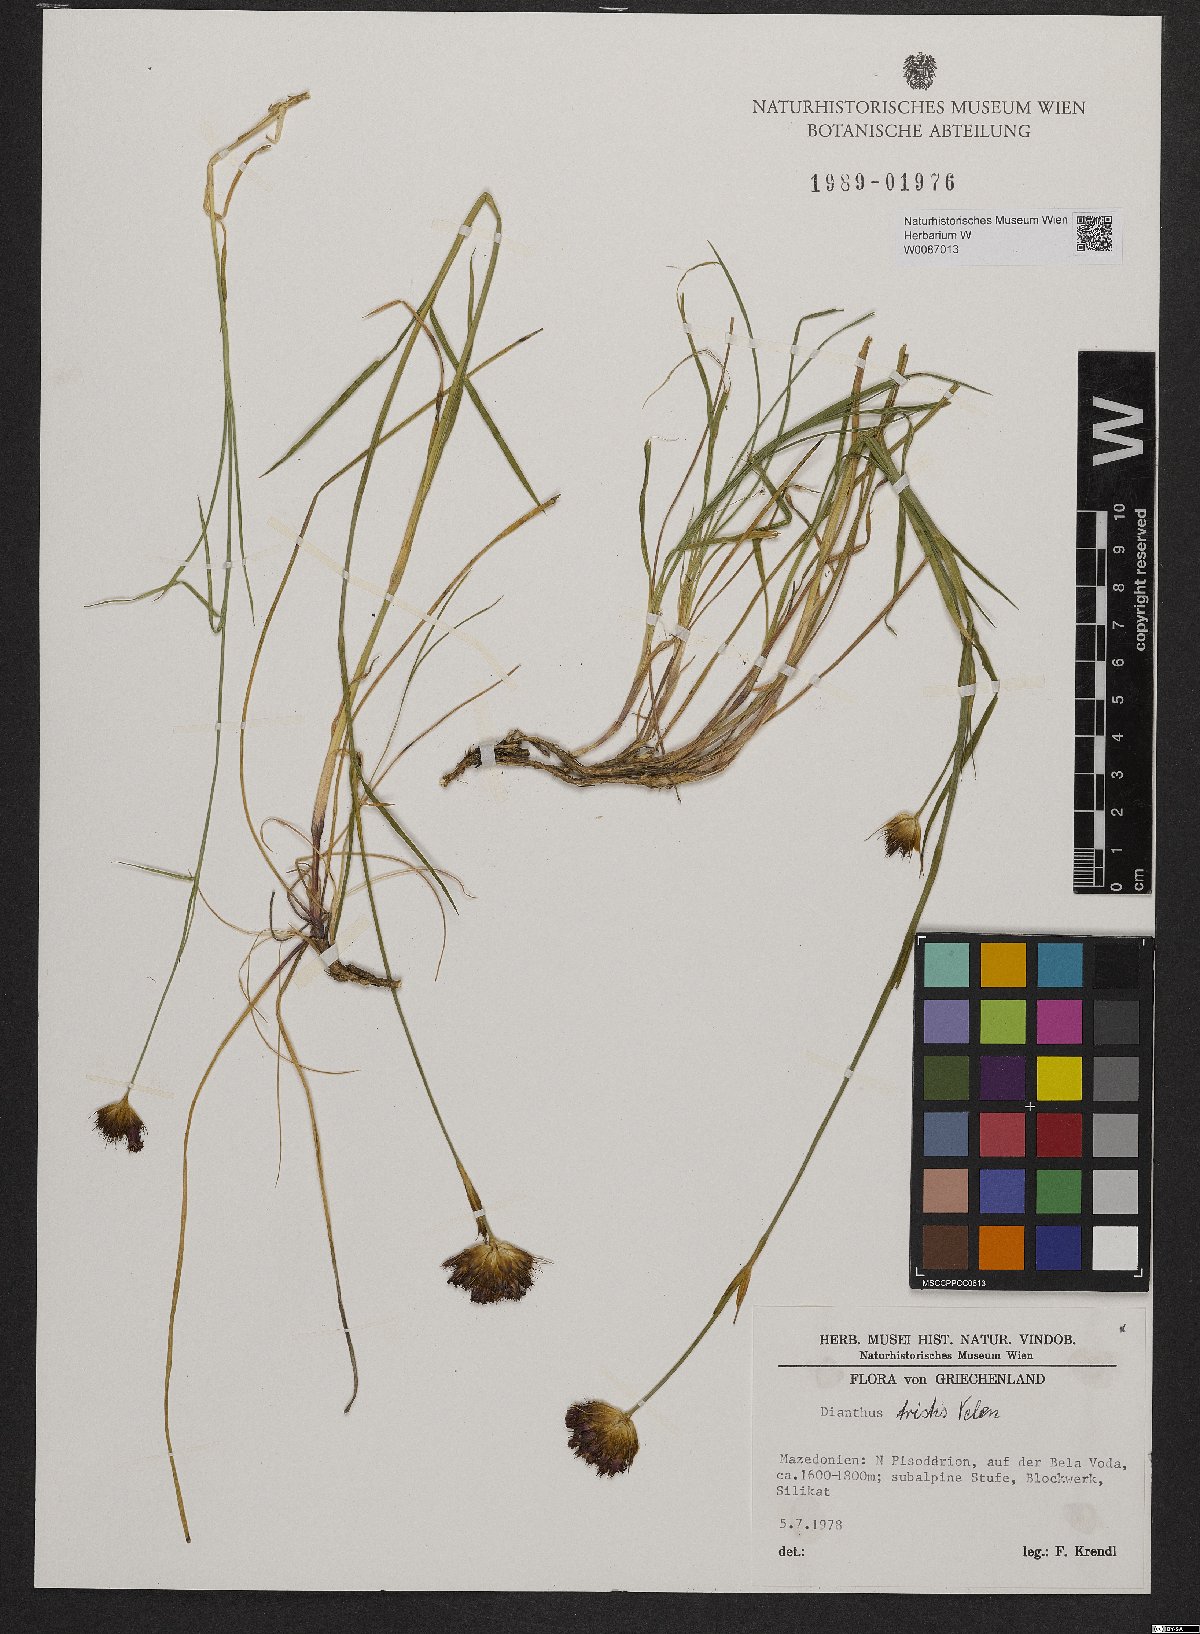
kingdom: Plantae
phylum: Tracheophyta
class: Magnoliopsida
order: Caryophyllales
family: Caryophyllaceae
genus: Dianthus
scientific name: Dianthus pancicii
